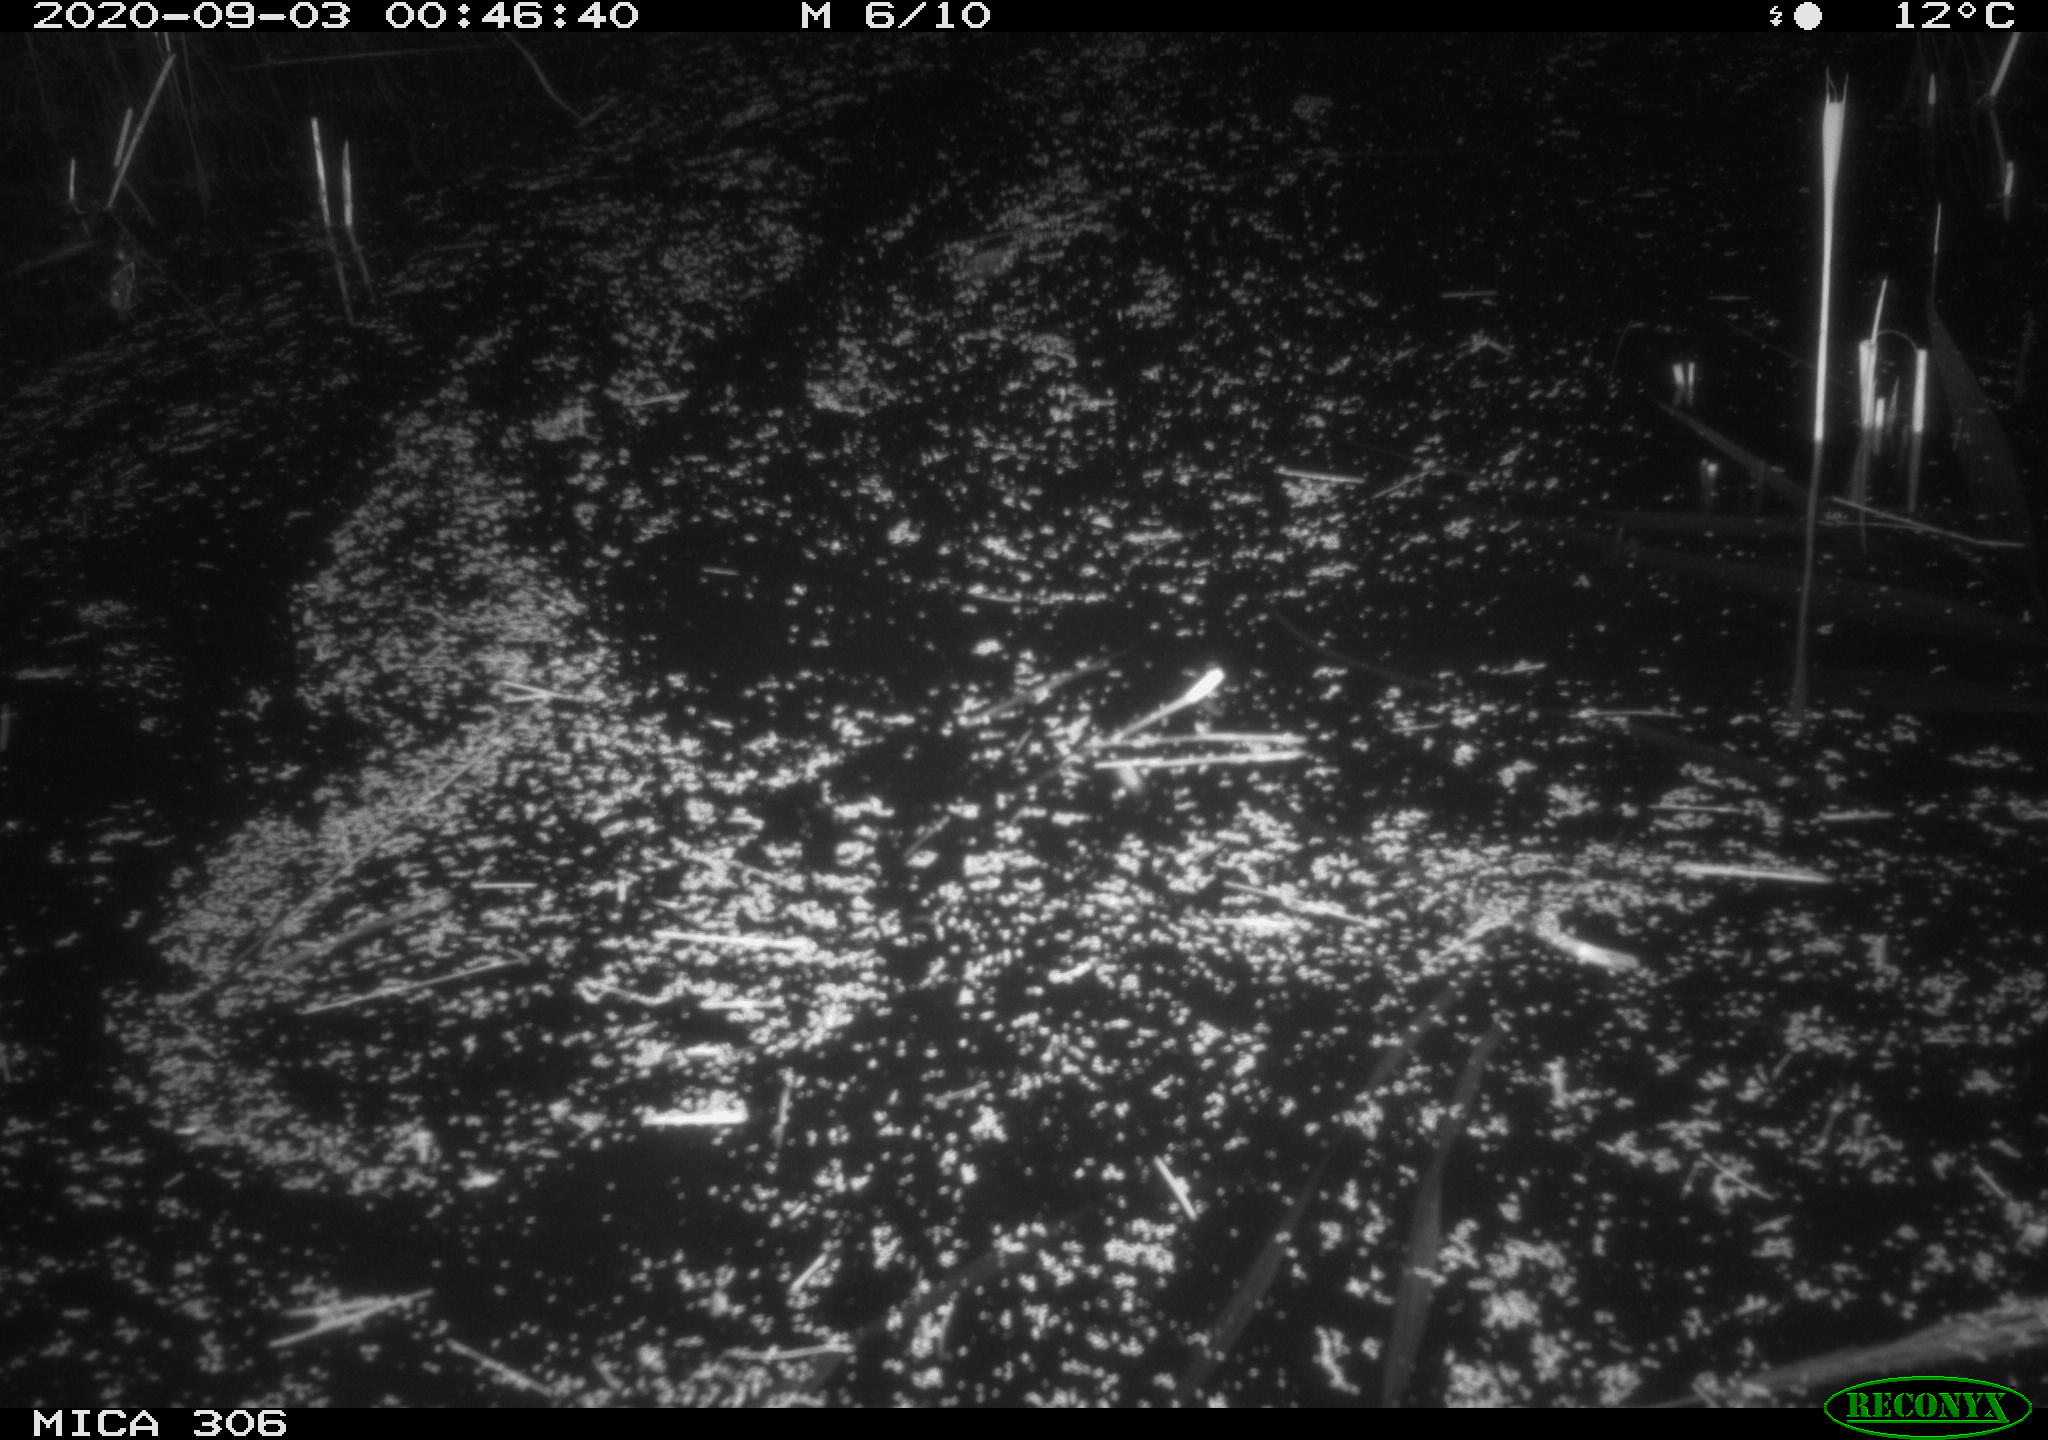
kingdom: Animalia
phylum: Chordata
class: Mammalia
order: Rodentia
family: Muridae
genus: Rattus
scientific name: Rattus norvegicus
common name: Brown rat
